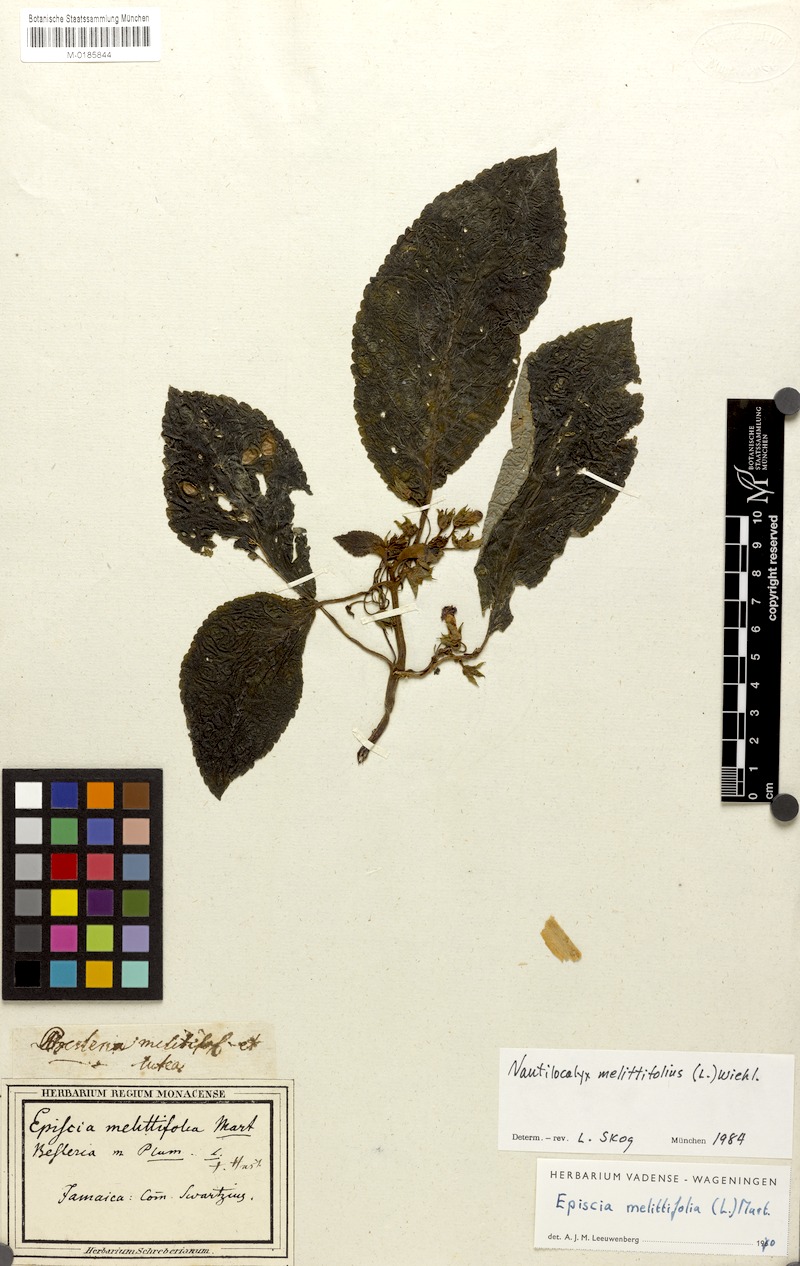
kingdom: Plantae
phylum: Tracheophyta
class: Magnoliopsida
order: Lamiales
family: Gesneriaceae
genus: Chrysothemis
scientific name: Chrysothemis melittifolia
